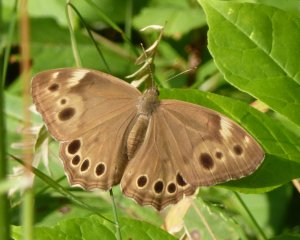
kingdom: Animalia
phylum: Arthropoda
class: Insecta
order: Lepidoptera
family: Nymphalidae
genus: Lethe
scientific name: Lethe anthedon
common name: Northern Pearly-Eye
